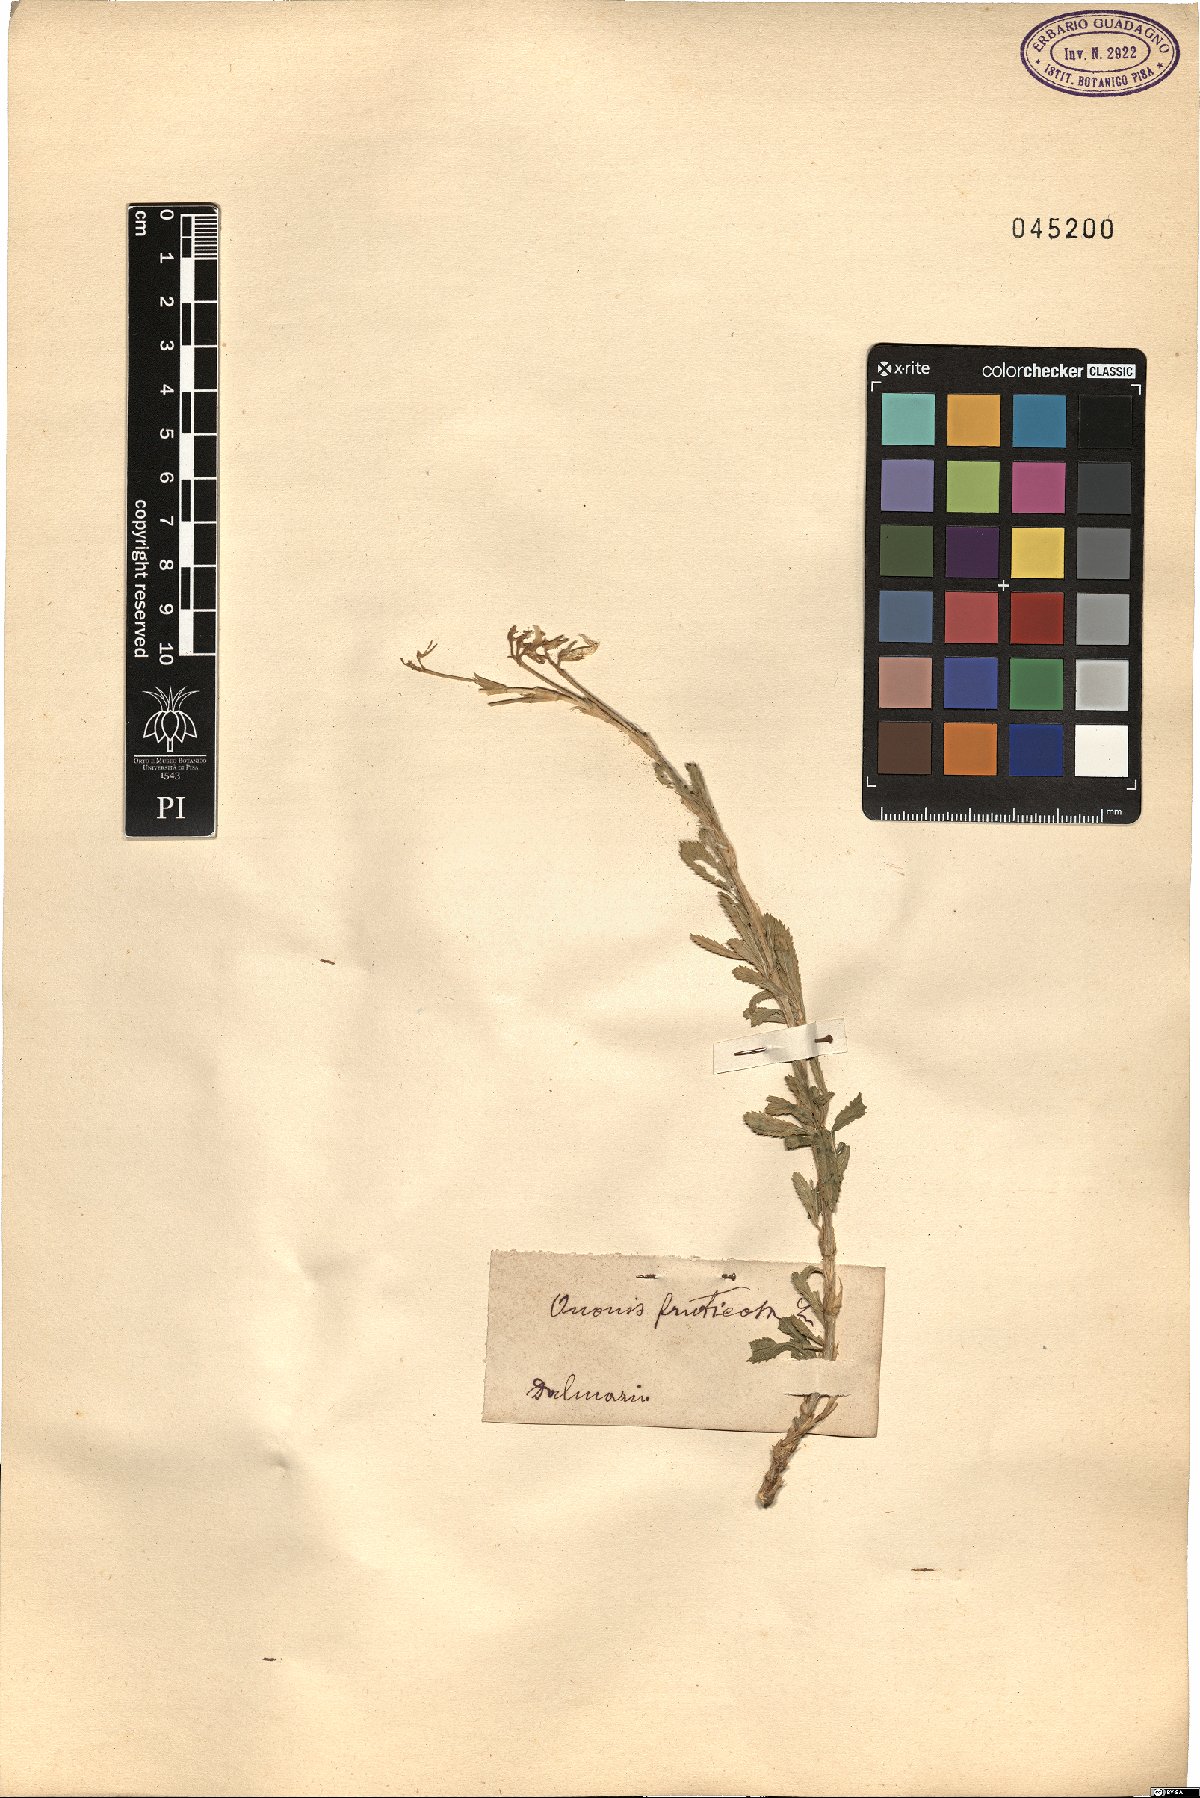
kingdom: Plantae
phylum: Tracheophyta
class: Magnoliopsida
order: Fabales
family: Fabaceae
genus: Ononis
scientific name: Ononis fruticosa
